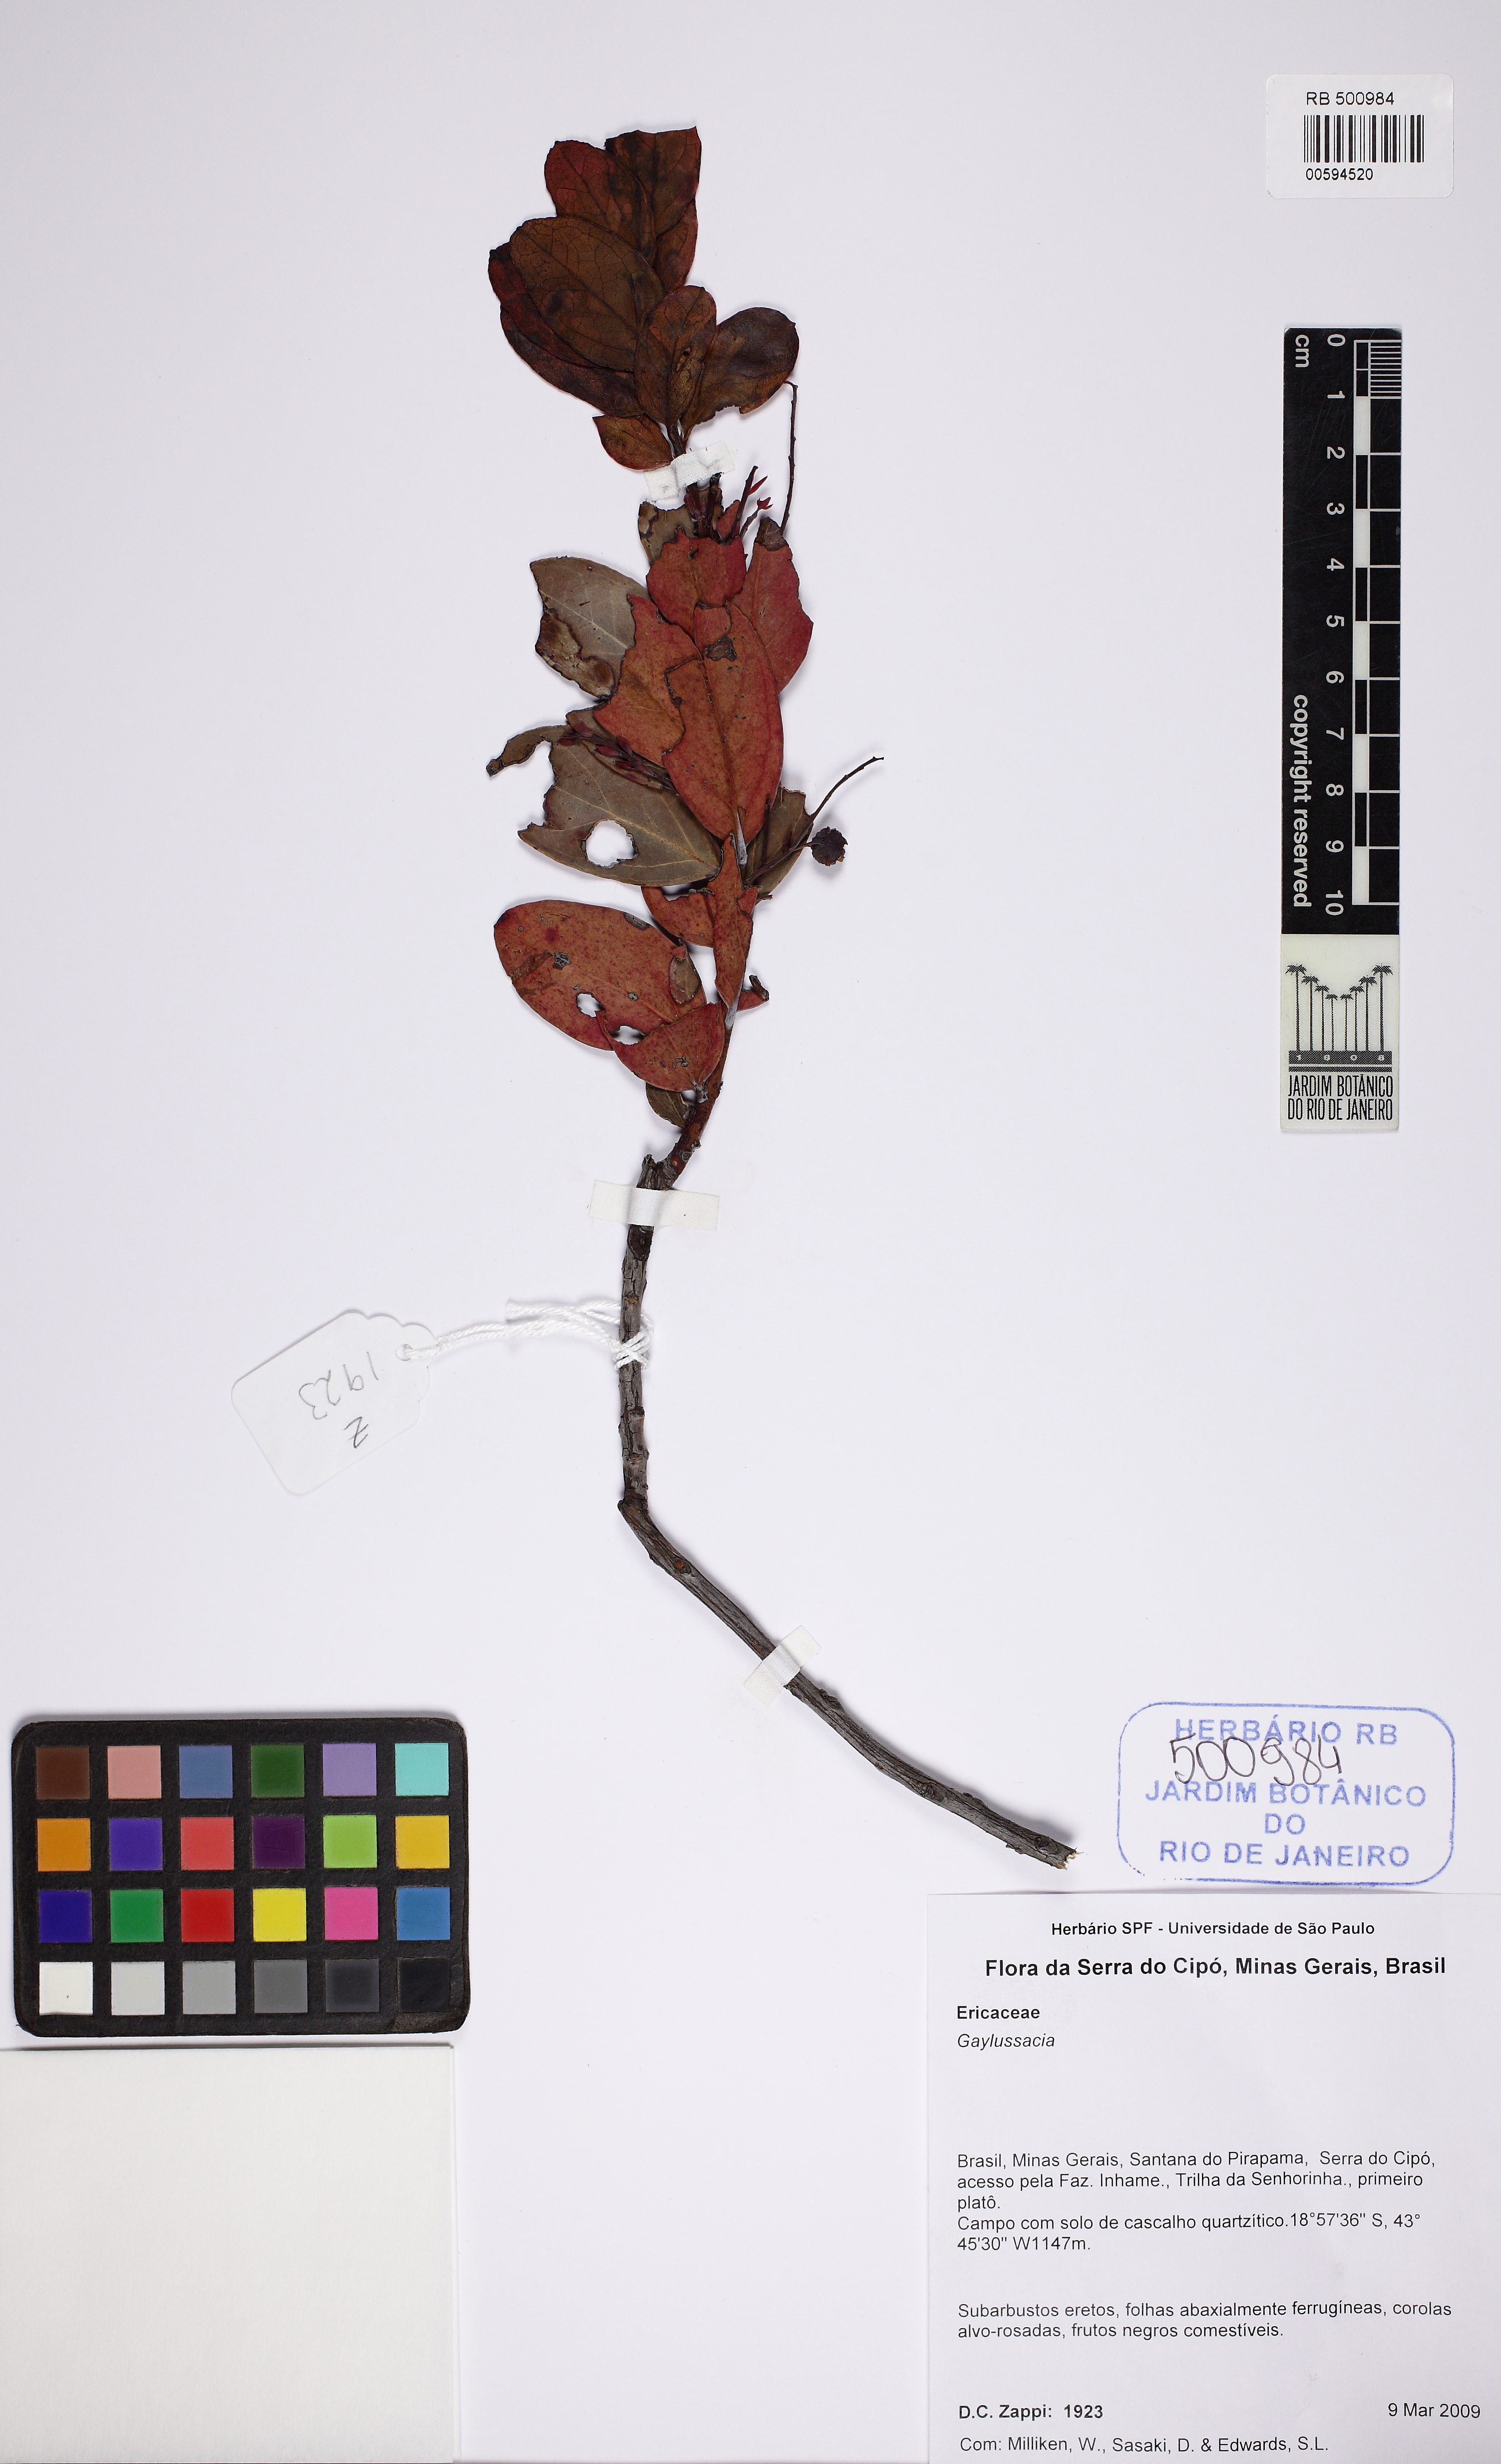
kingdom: Plantae
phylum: Tracheophyta
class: Magnoliopsida
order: Ericales
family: Ericaceae
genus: Gaylussacia
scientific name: Gaylussacia
